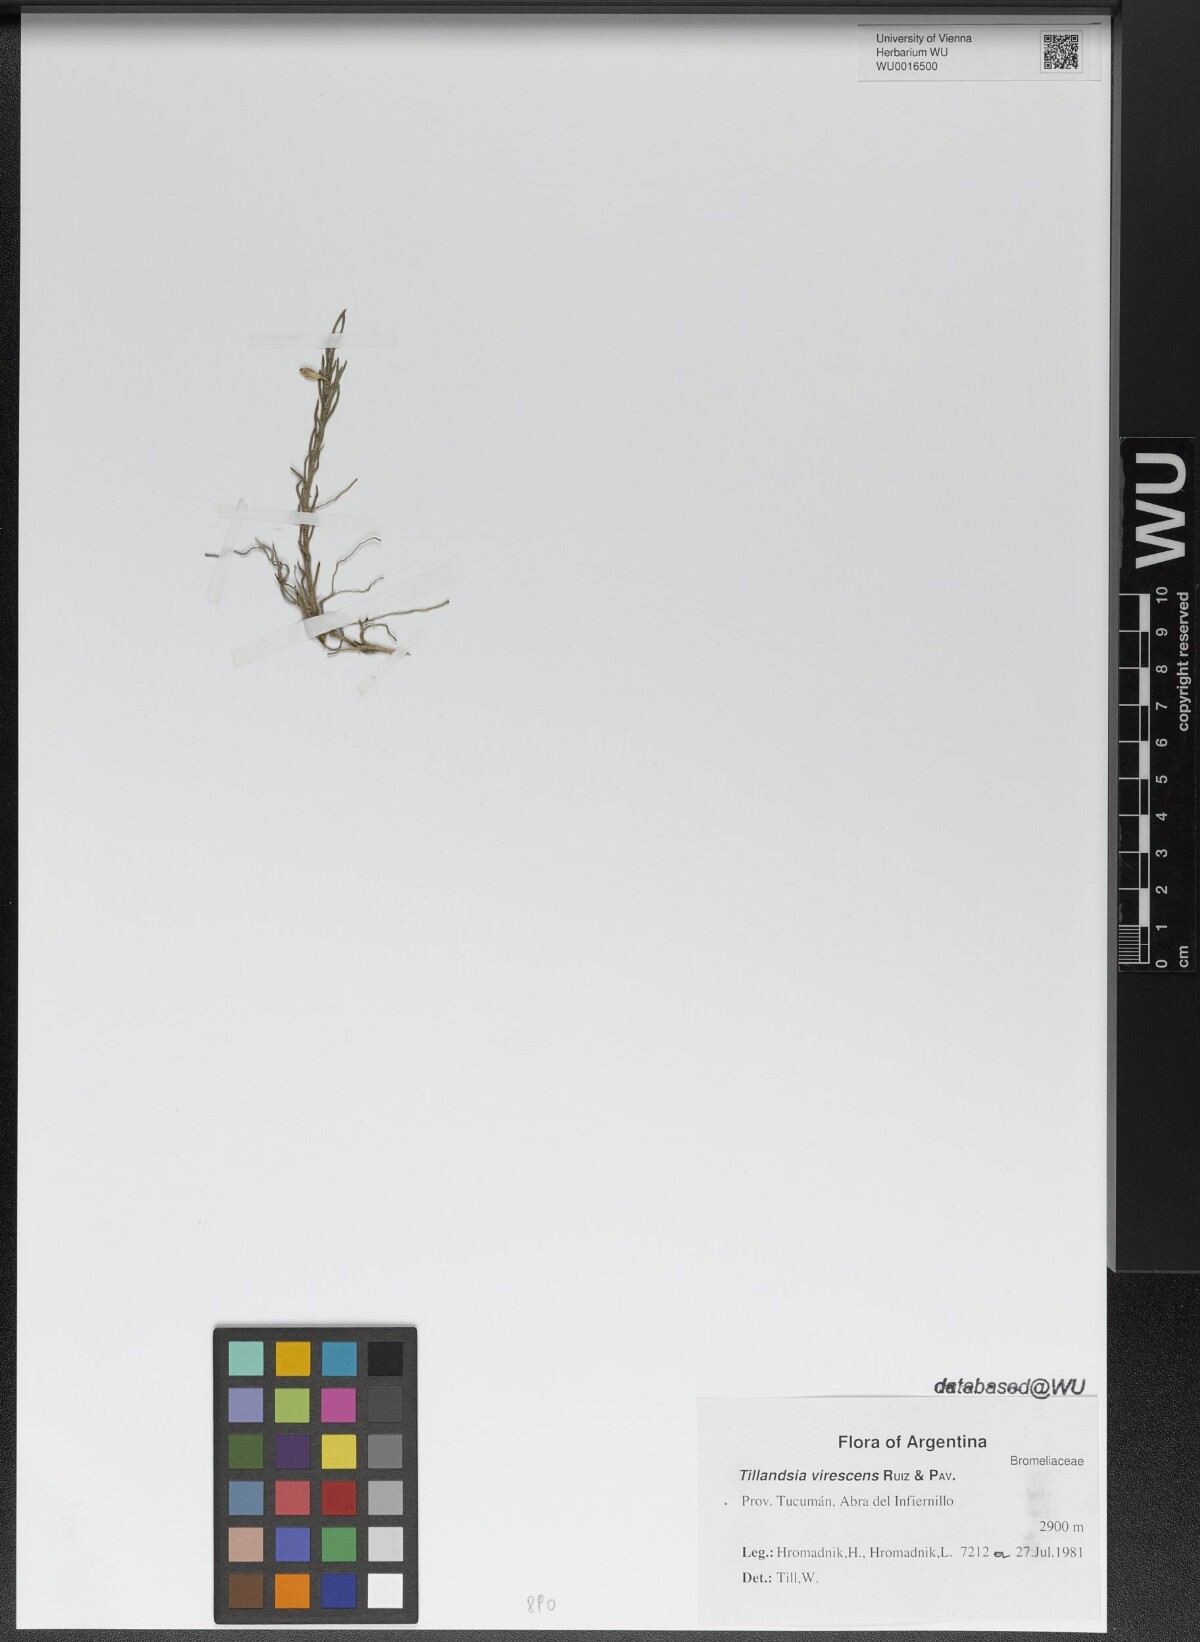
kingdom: Plantae
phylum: Tracheophyta
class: Liliopsida
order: Poales
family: Bromeliaceae
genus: Tillandsia
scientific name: Tillandsia virescens
